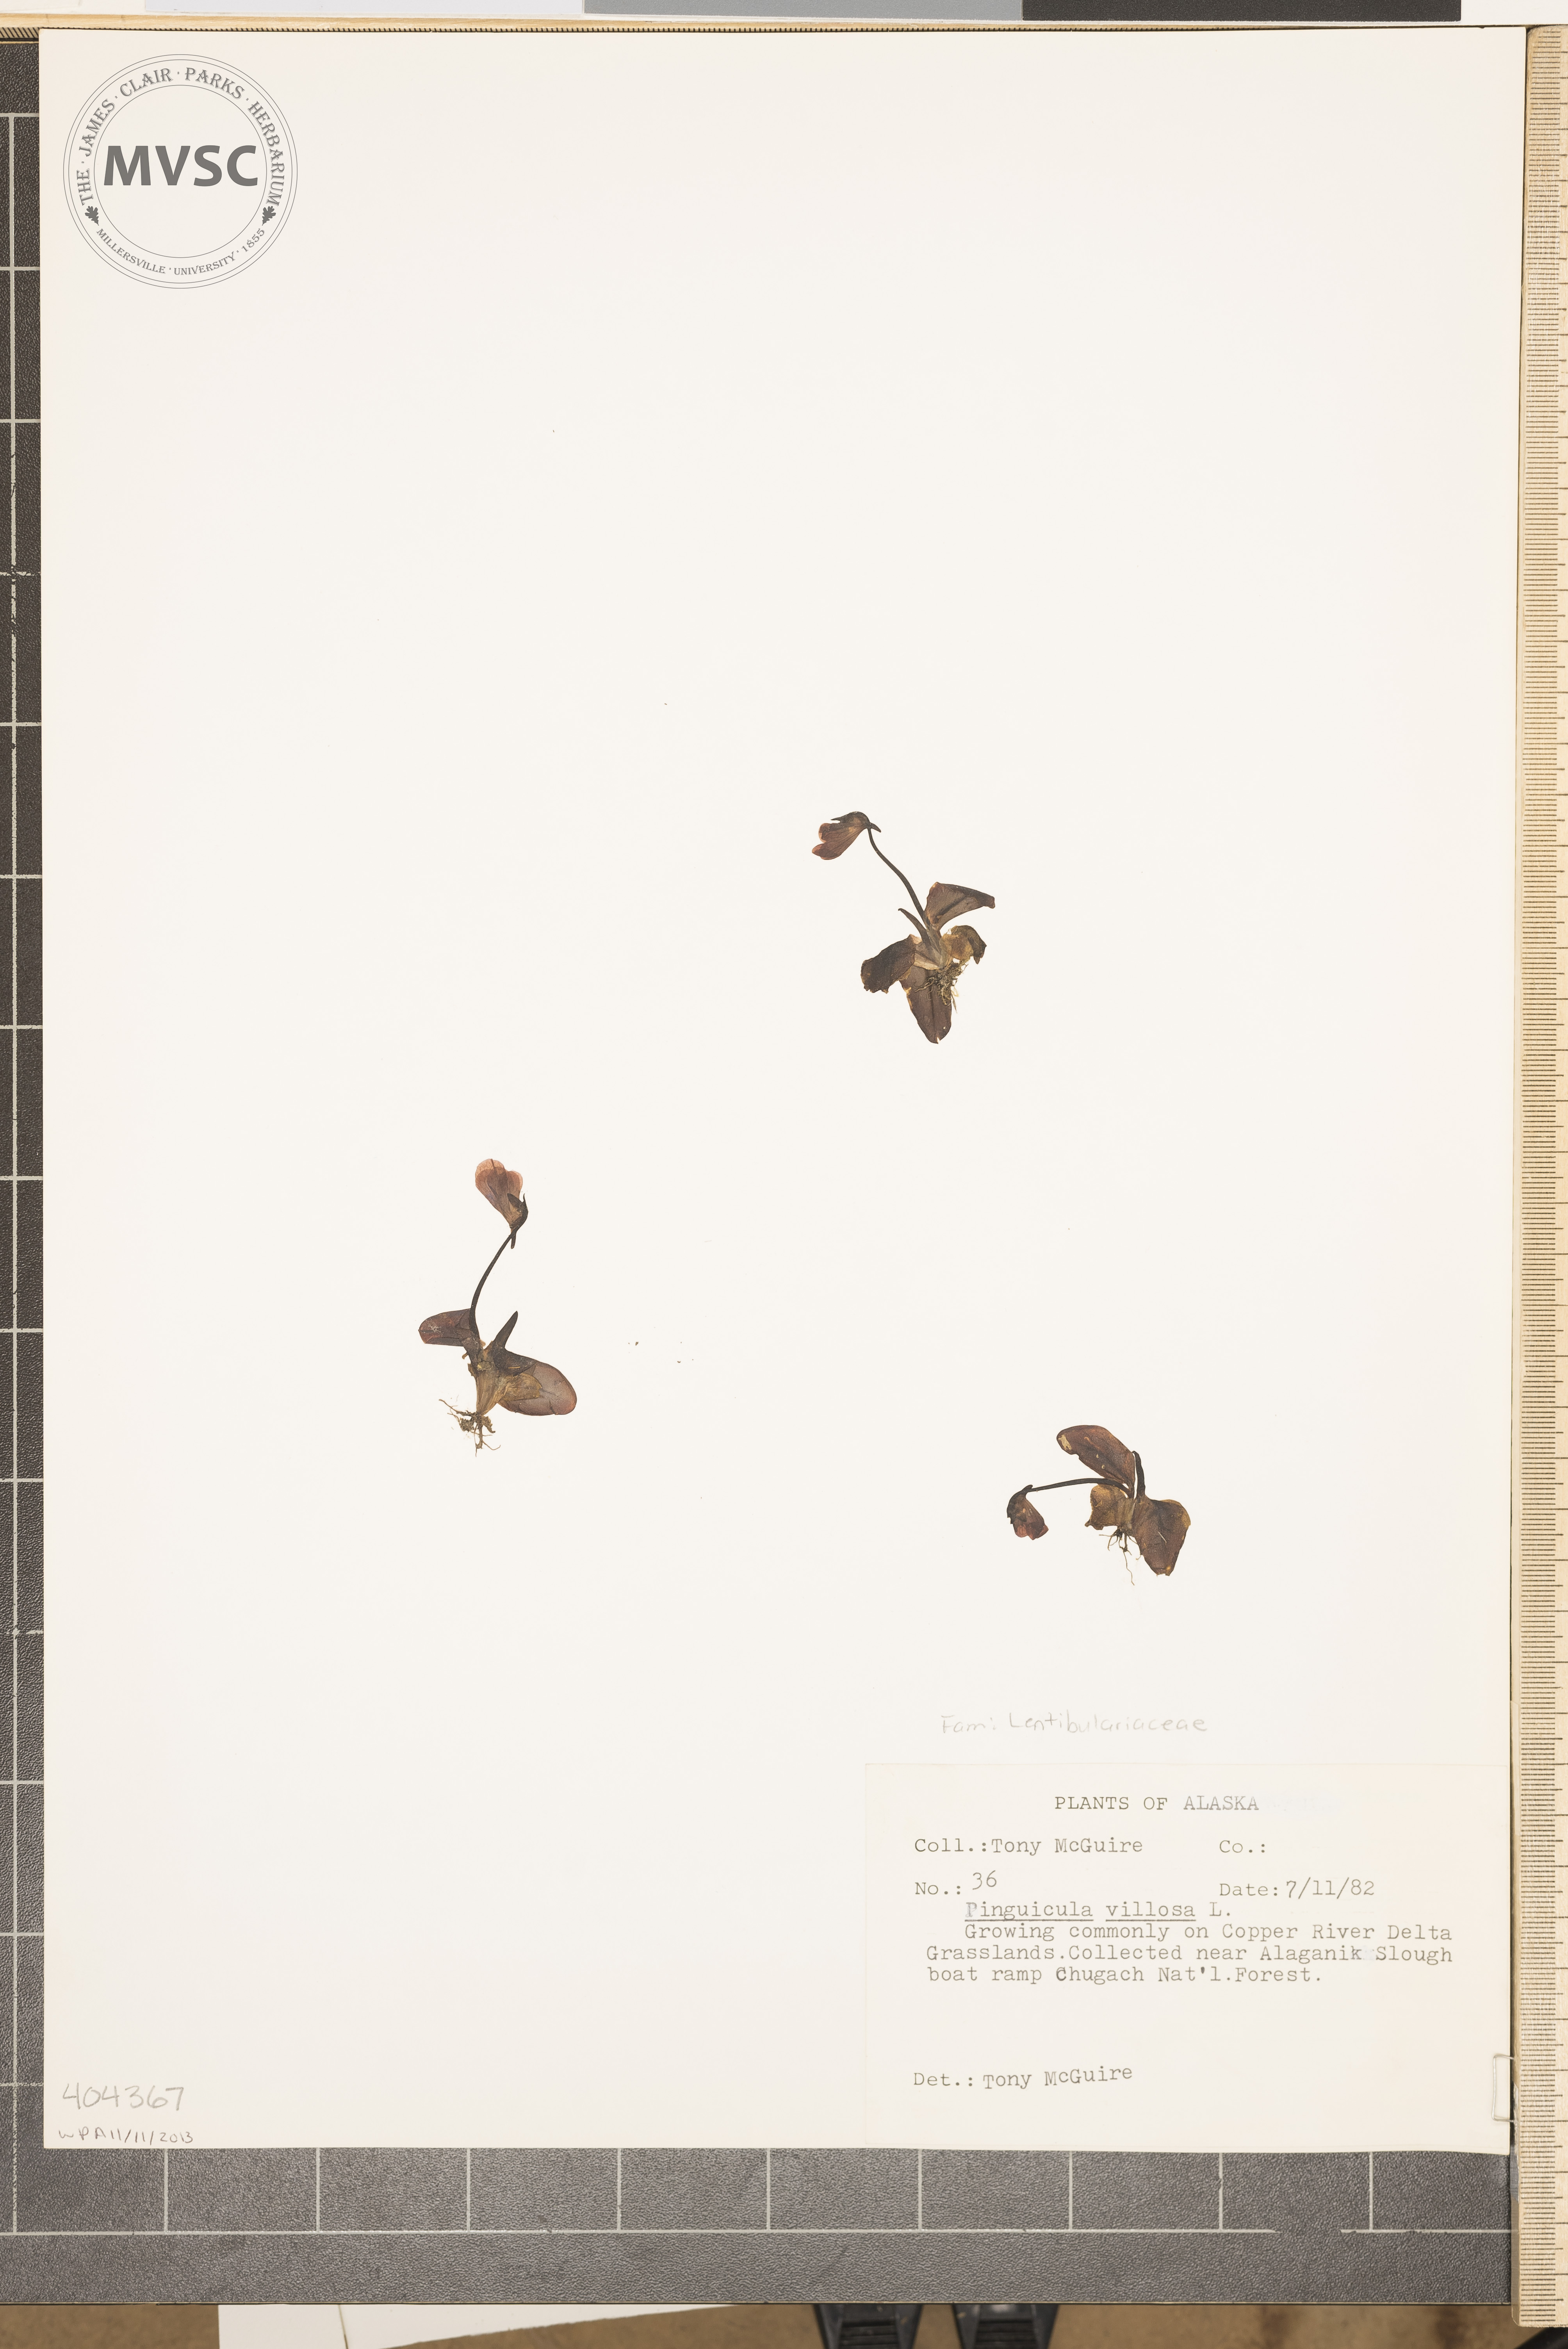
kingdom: Plantae
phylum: Tracheophyta
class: Magnoliopsida
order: Lamiales
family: Lentibulariaceae
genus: Pinguicula
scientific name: Pinguicula villosa
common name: Hairy butterwort
